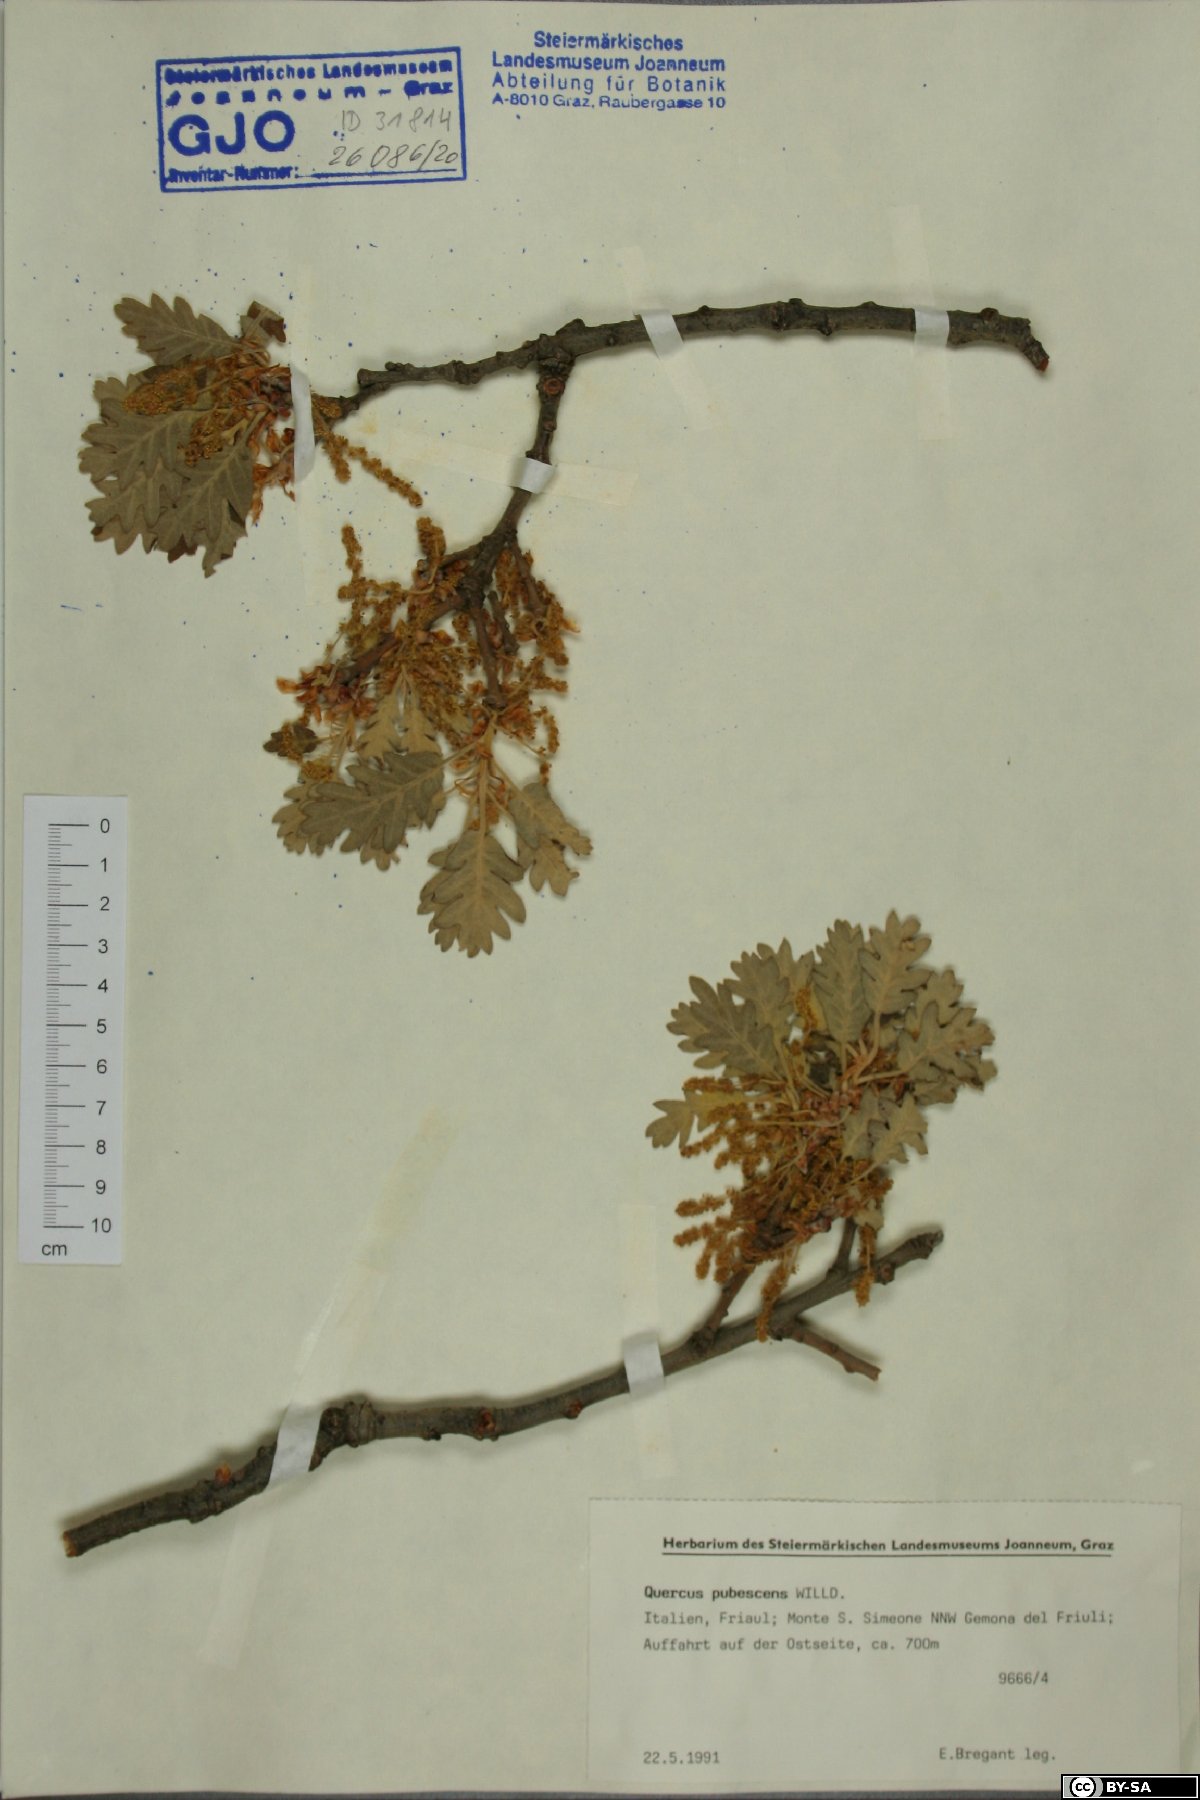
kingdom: Plantae
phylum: Tracheophyta
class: Magnoliopsida
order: Fagales
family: Fagaceae
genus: Quercus
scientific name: Quercus pubescens
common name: Downy oak
